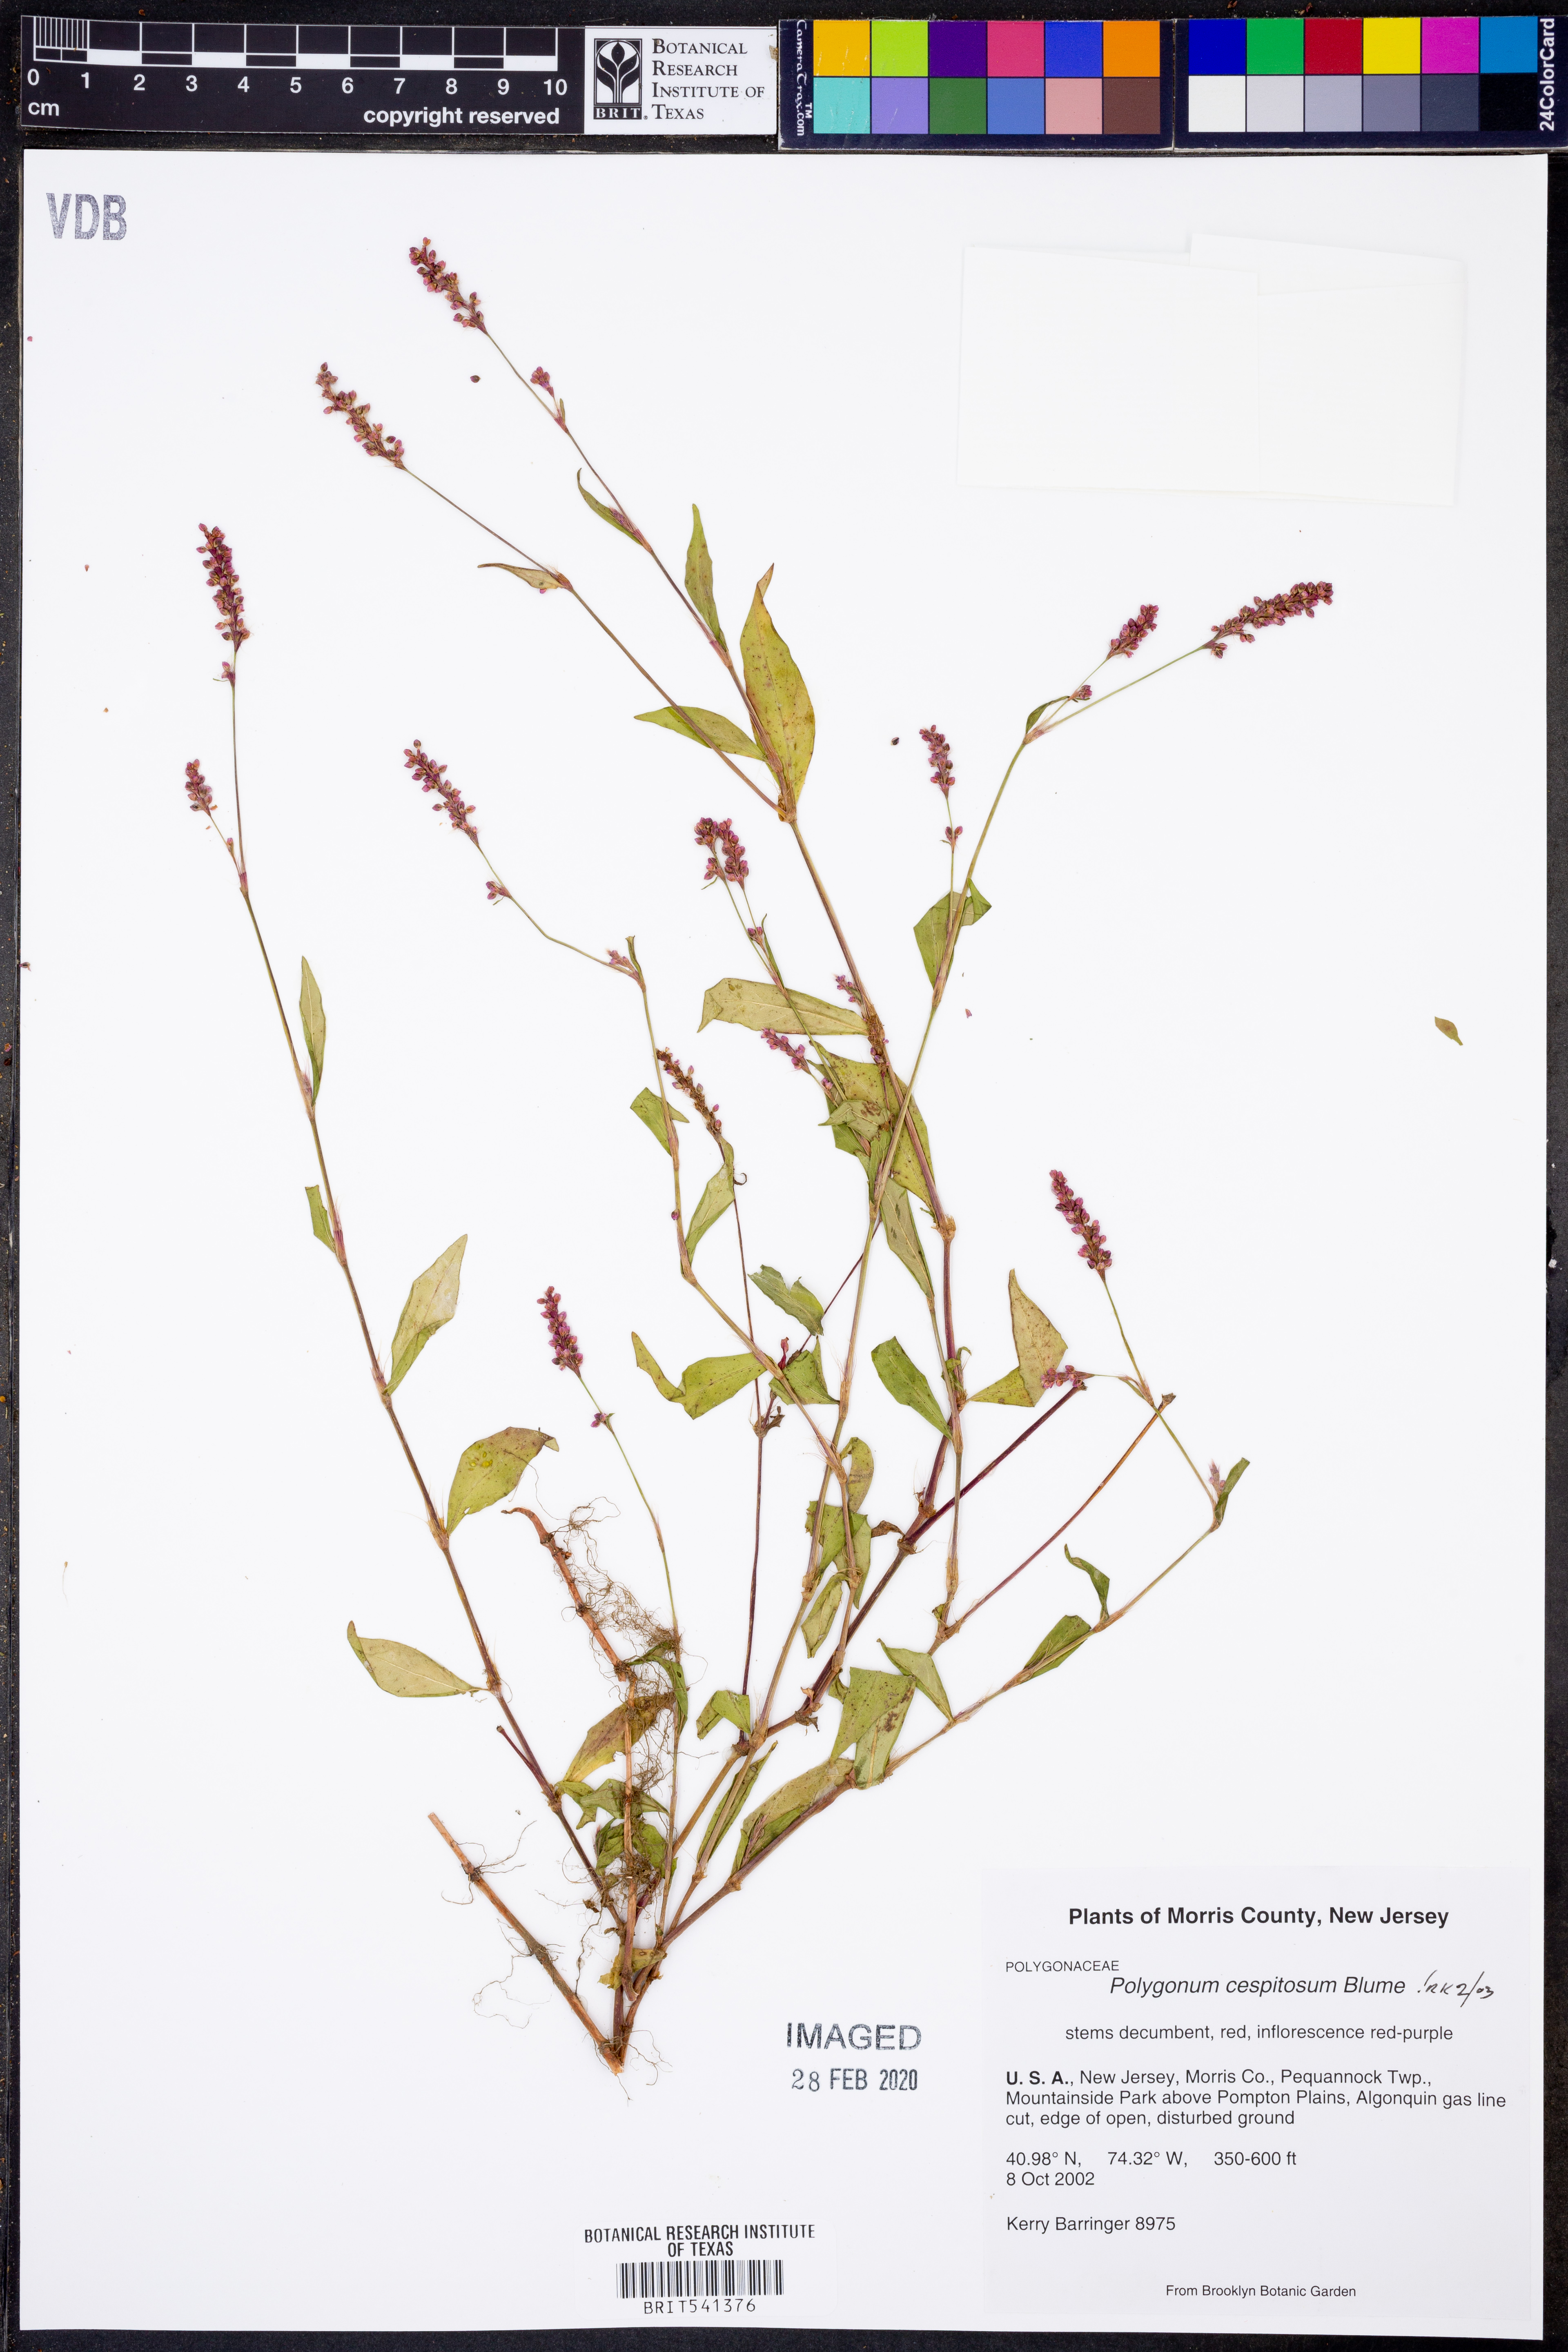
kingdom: Plantae
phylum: Tracheophyta
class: Magnoliopsida
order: Caryophyllales
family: Polygonaceae
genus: Persicaria
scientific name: Persicaria posumbu
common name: Oriental lady's thumb
